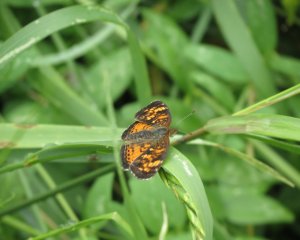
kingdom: Animalia
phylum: Arthropoda
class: Insecta
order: Lepidoptera
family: Nymphalidae
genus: Phyciodes
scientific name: Phyciodes tharos
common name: Northern Crescent
